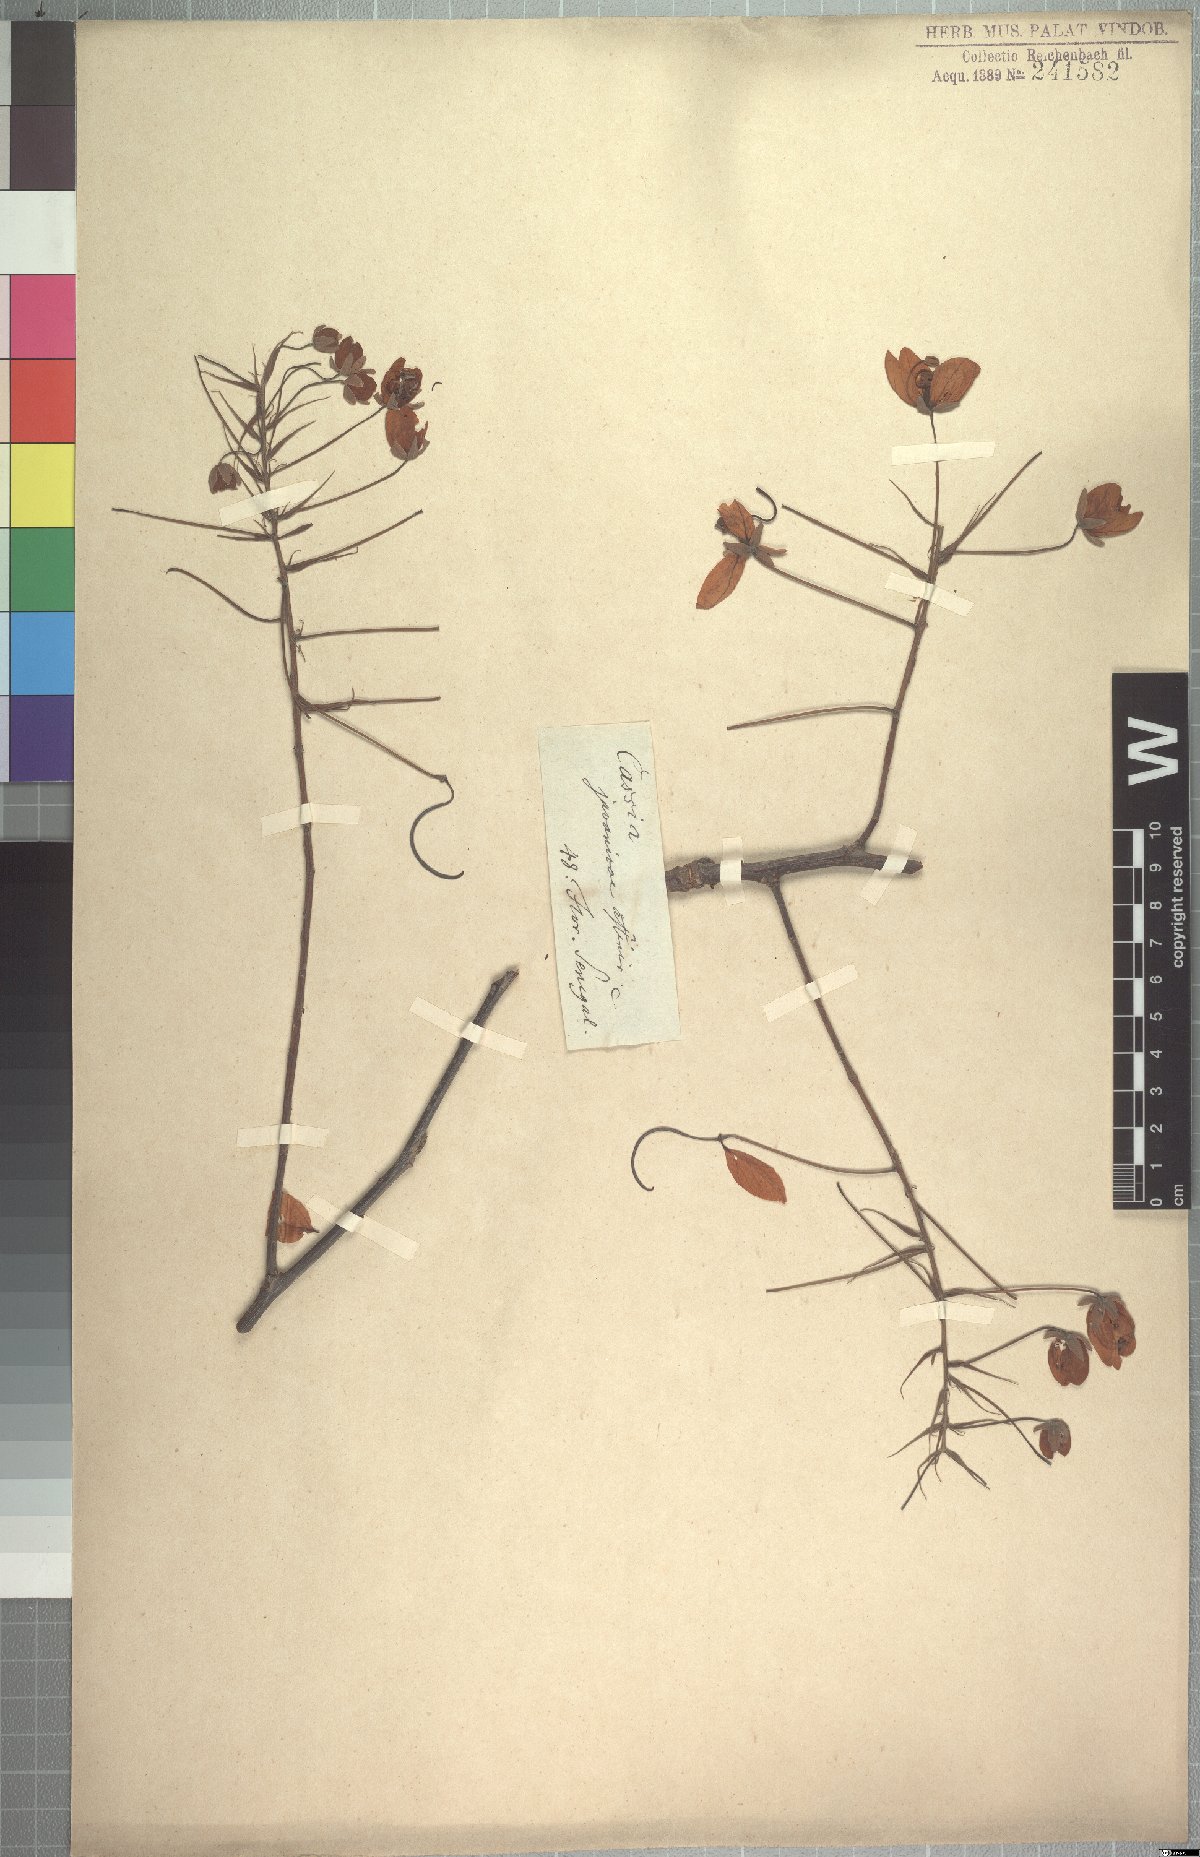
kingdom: Plantae
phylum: Tracheophyta
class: Magnoliopsida
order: Fabales
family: Fabaceae
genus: Cassia
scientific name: Cassia sieberiana
